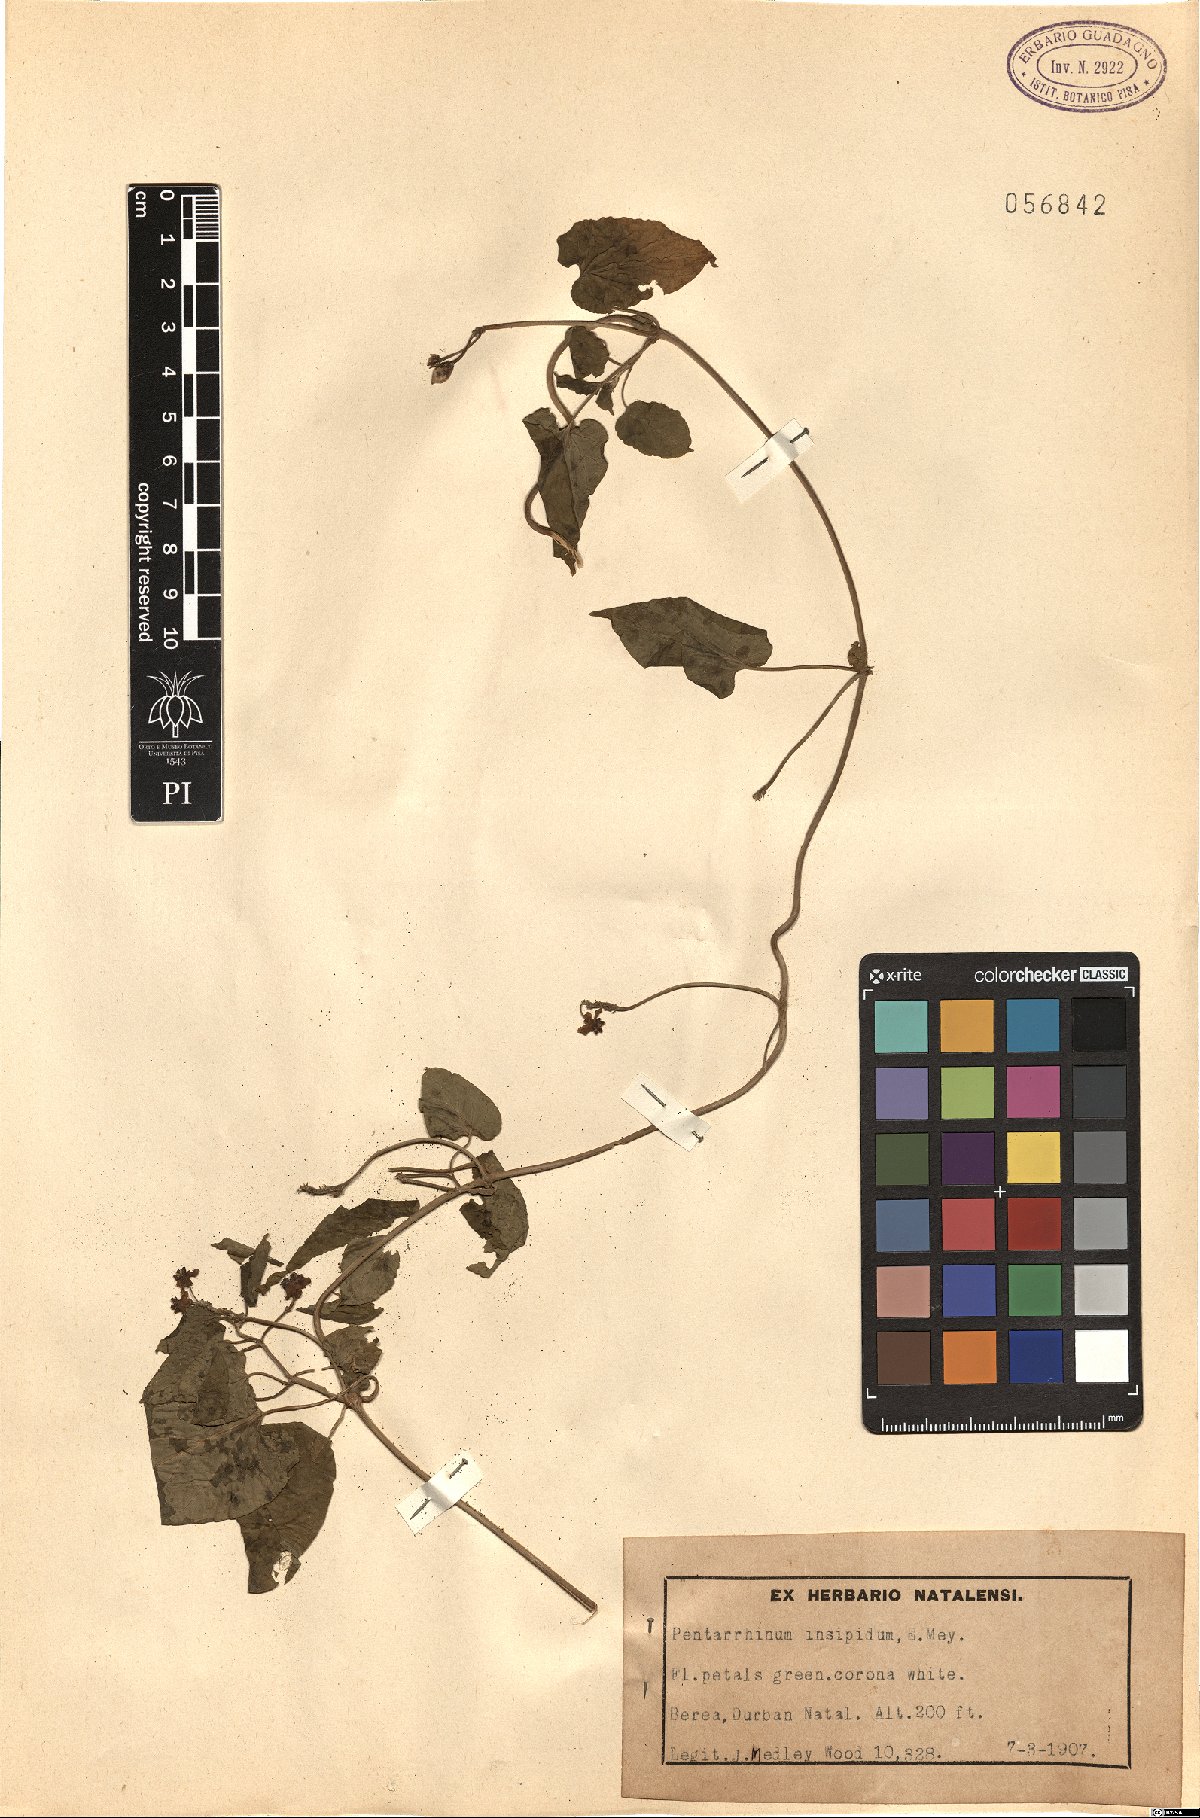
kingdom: Plantae
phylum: Tracheophyta
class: Magnoliopsida
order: Gentianales
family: Apocynaceae
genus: Cynanchum
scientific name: Cynanchum insipidum
